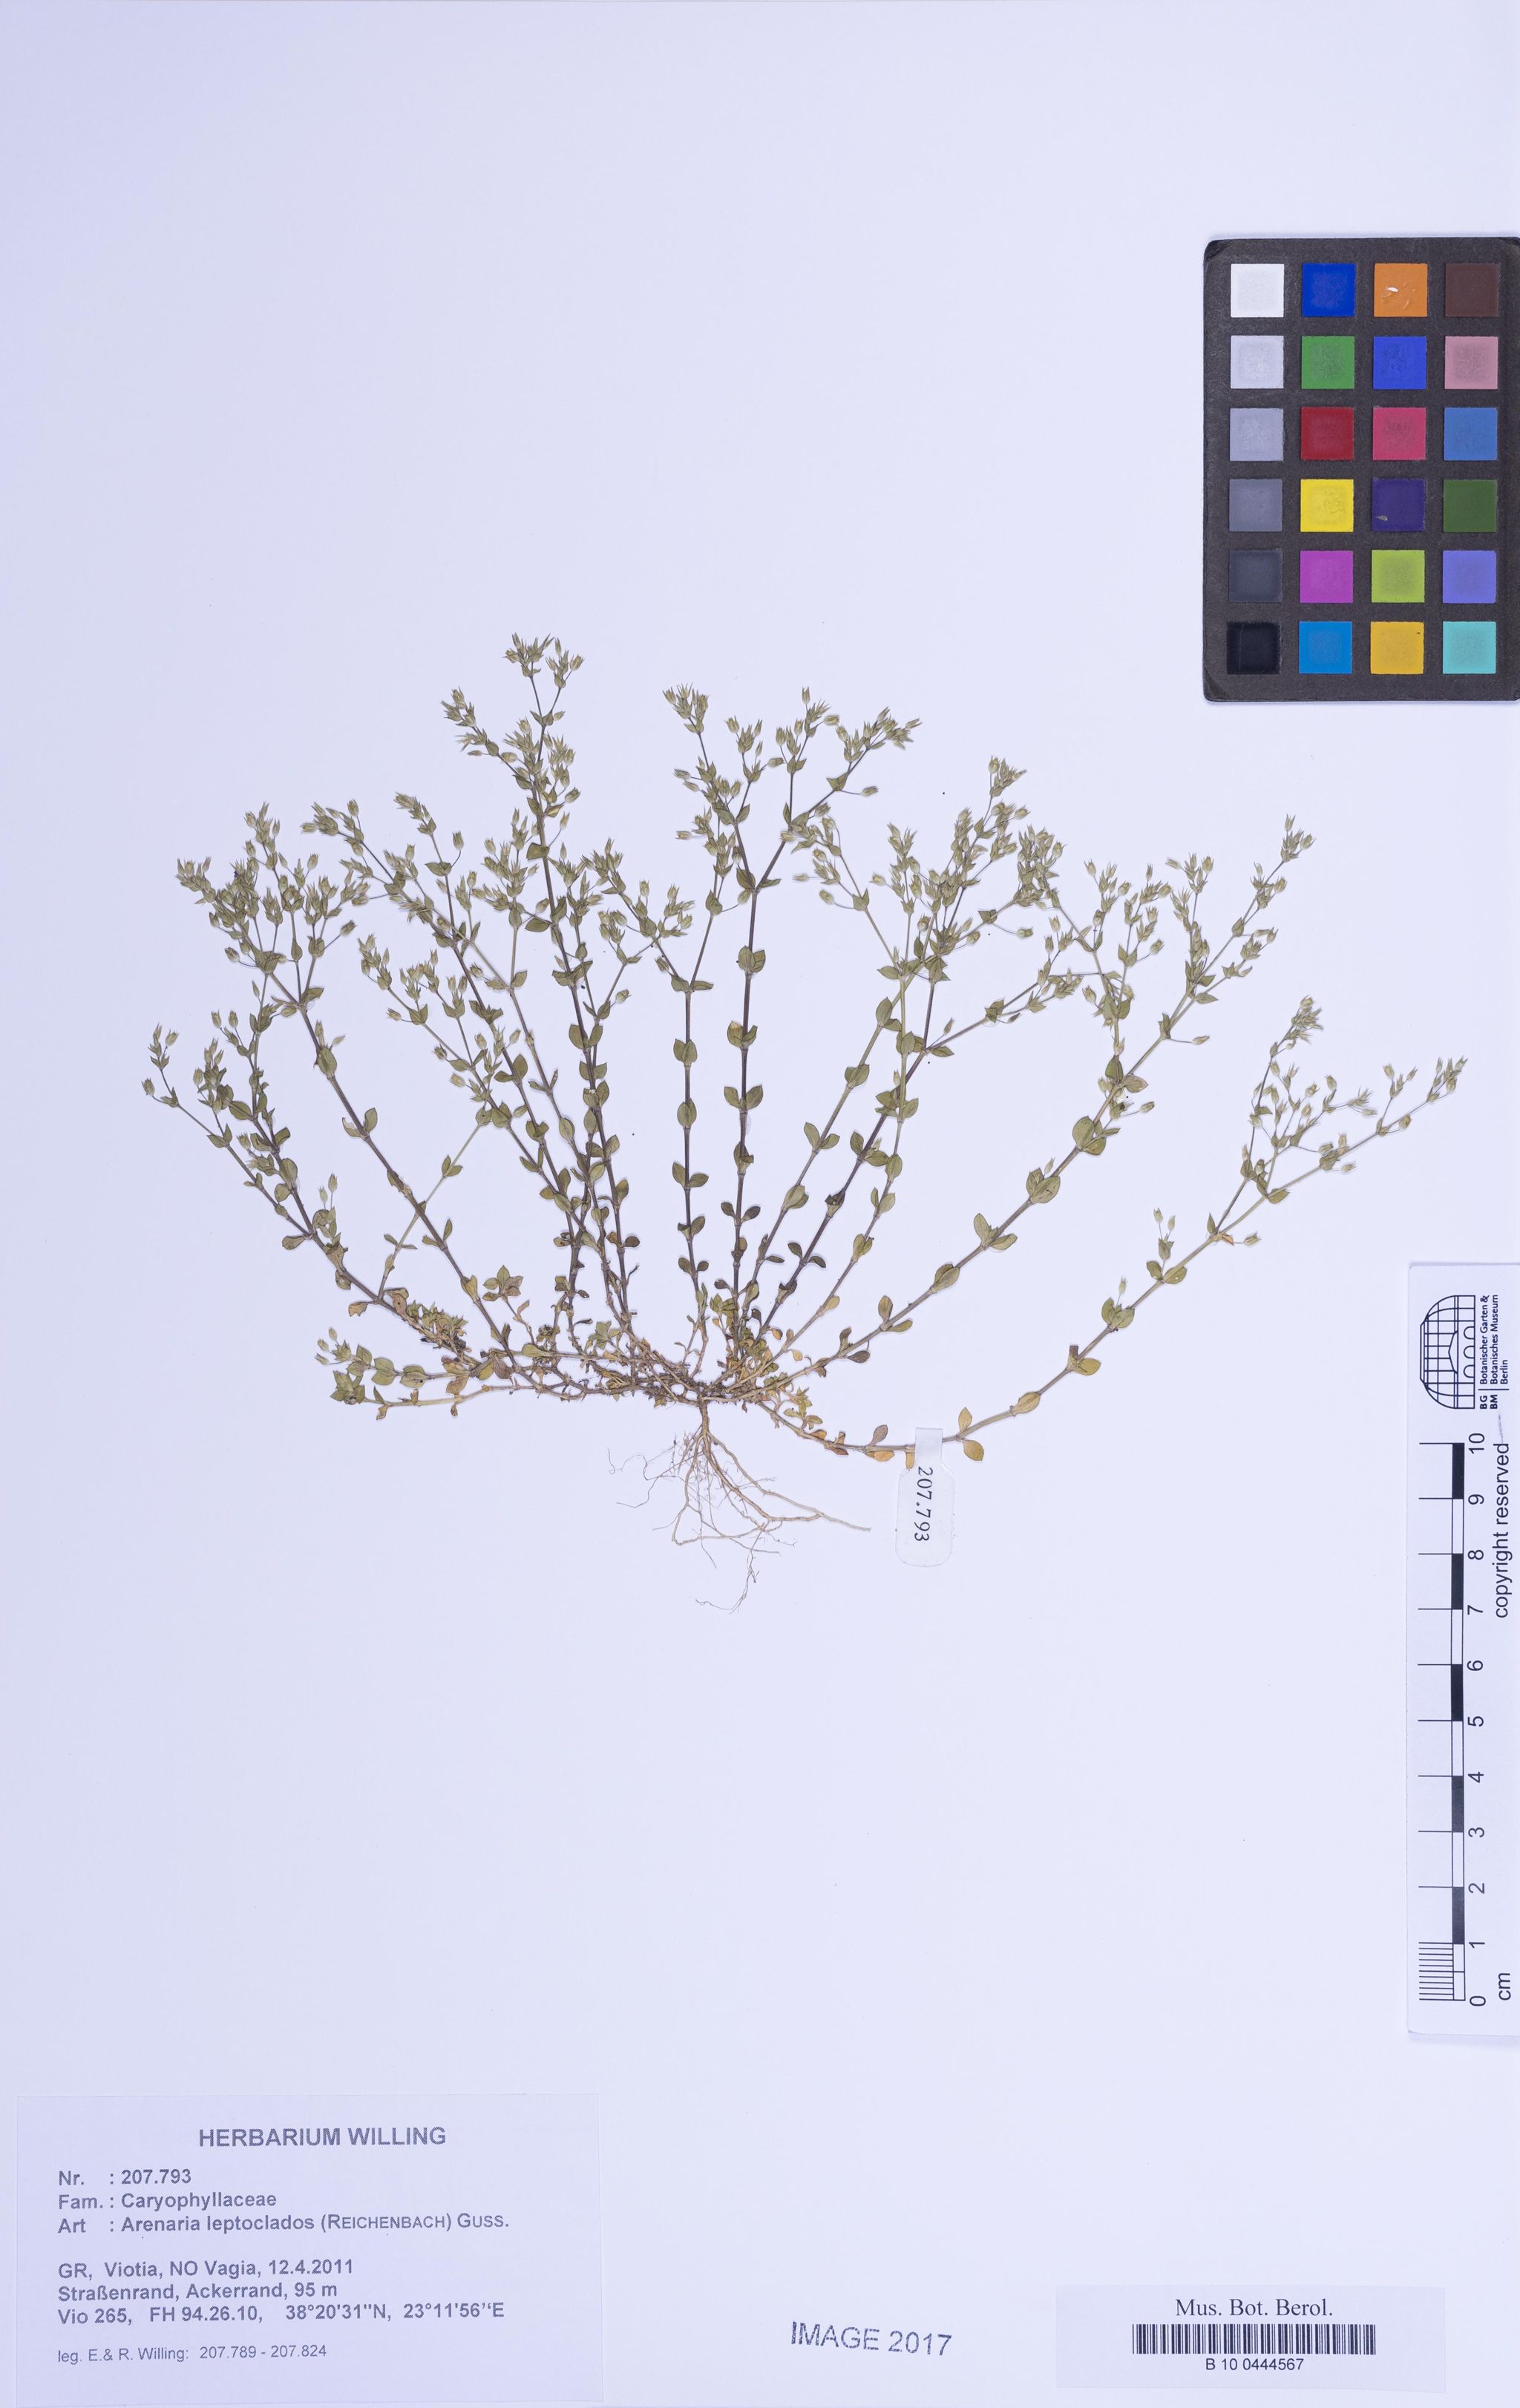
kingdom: Plantae
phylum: Tracheophyta
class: Magnoliopsida
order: Caryophyllales
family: Caryophyllaceae
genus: Arenaria
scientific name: Arenaria leptoclados
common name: Thyme-leaved sandwort
